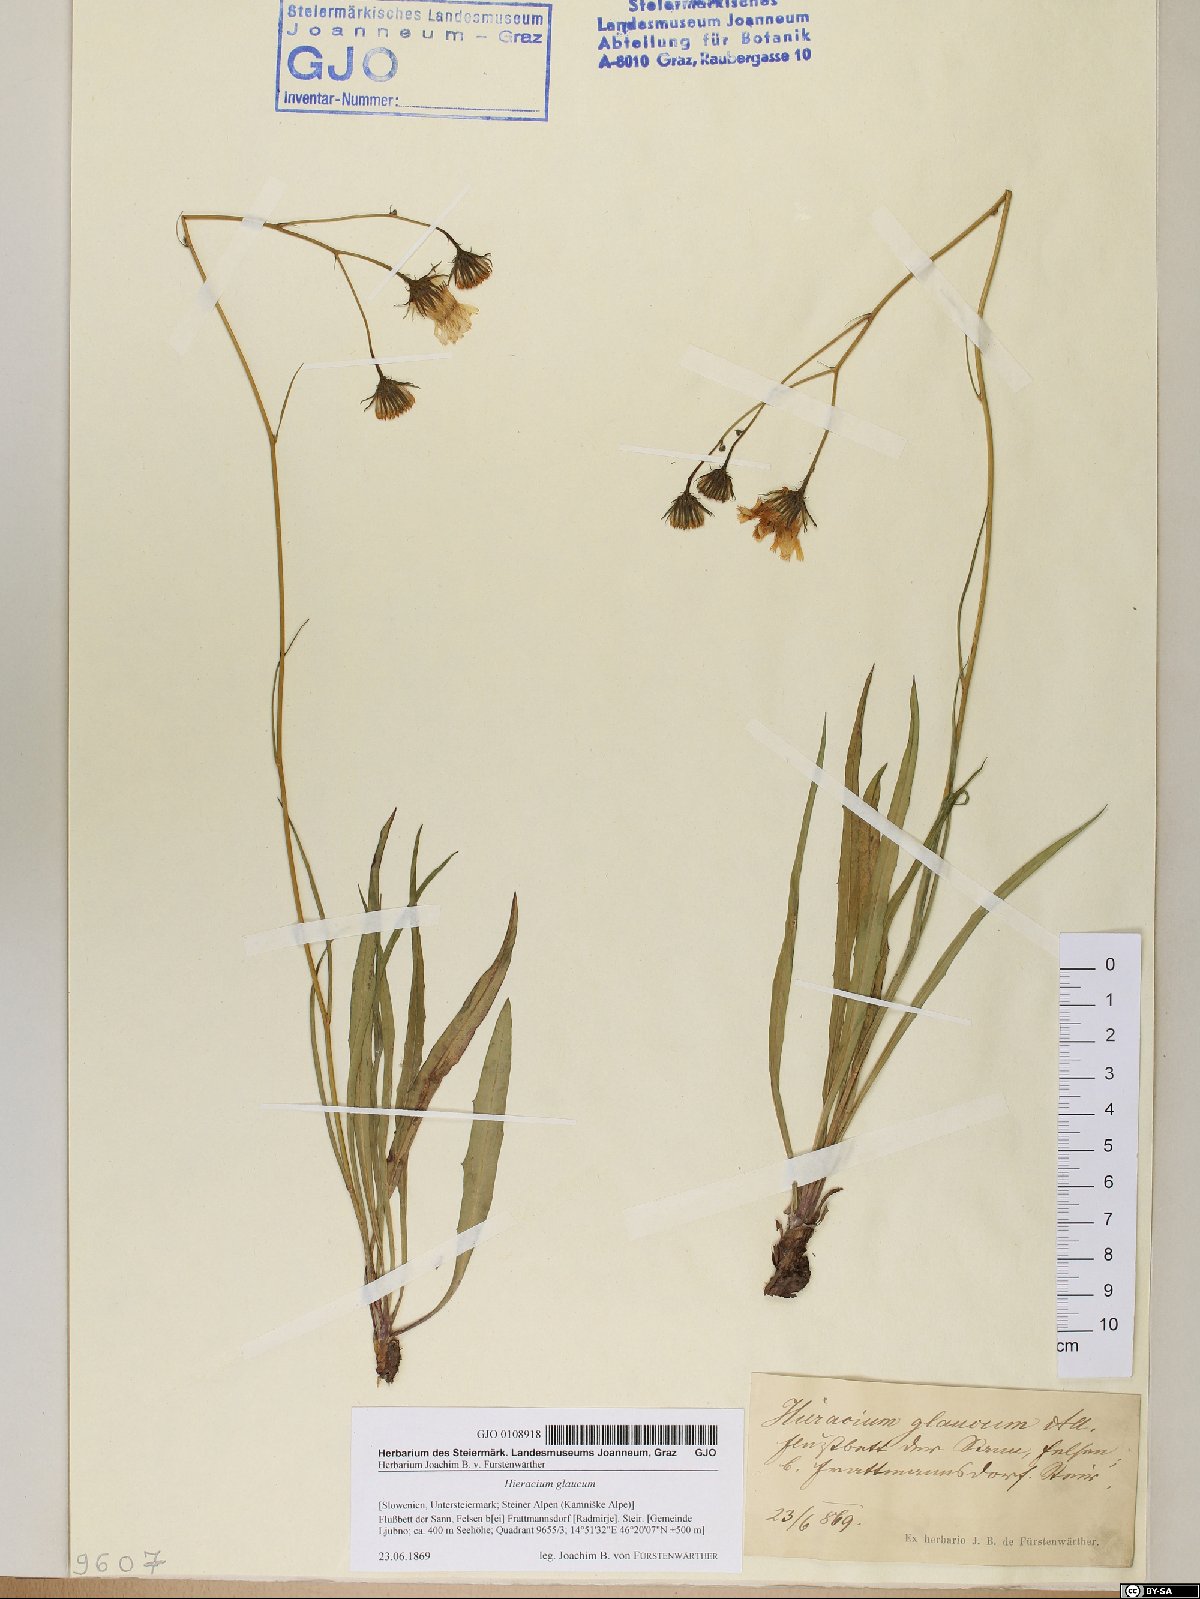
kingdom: Plantae
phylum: Tracheophyta
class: Magnoliopsida
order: Asterales
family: Asteraceae
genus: Hieracium
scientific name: Hieracium glaucum
